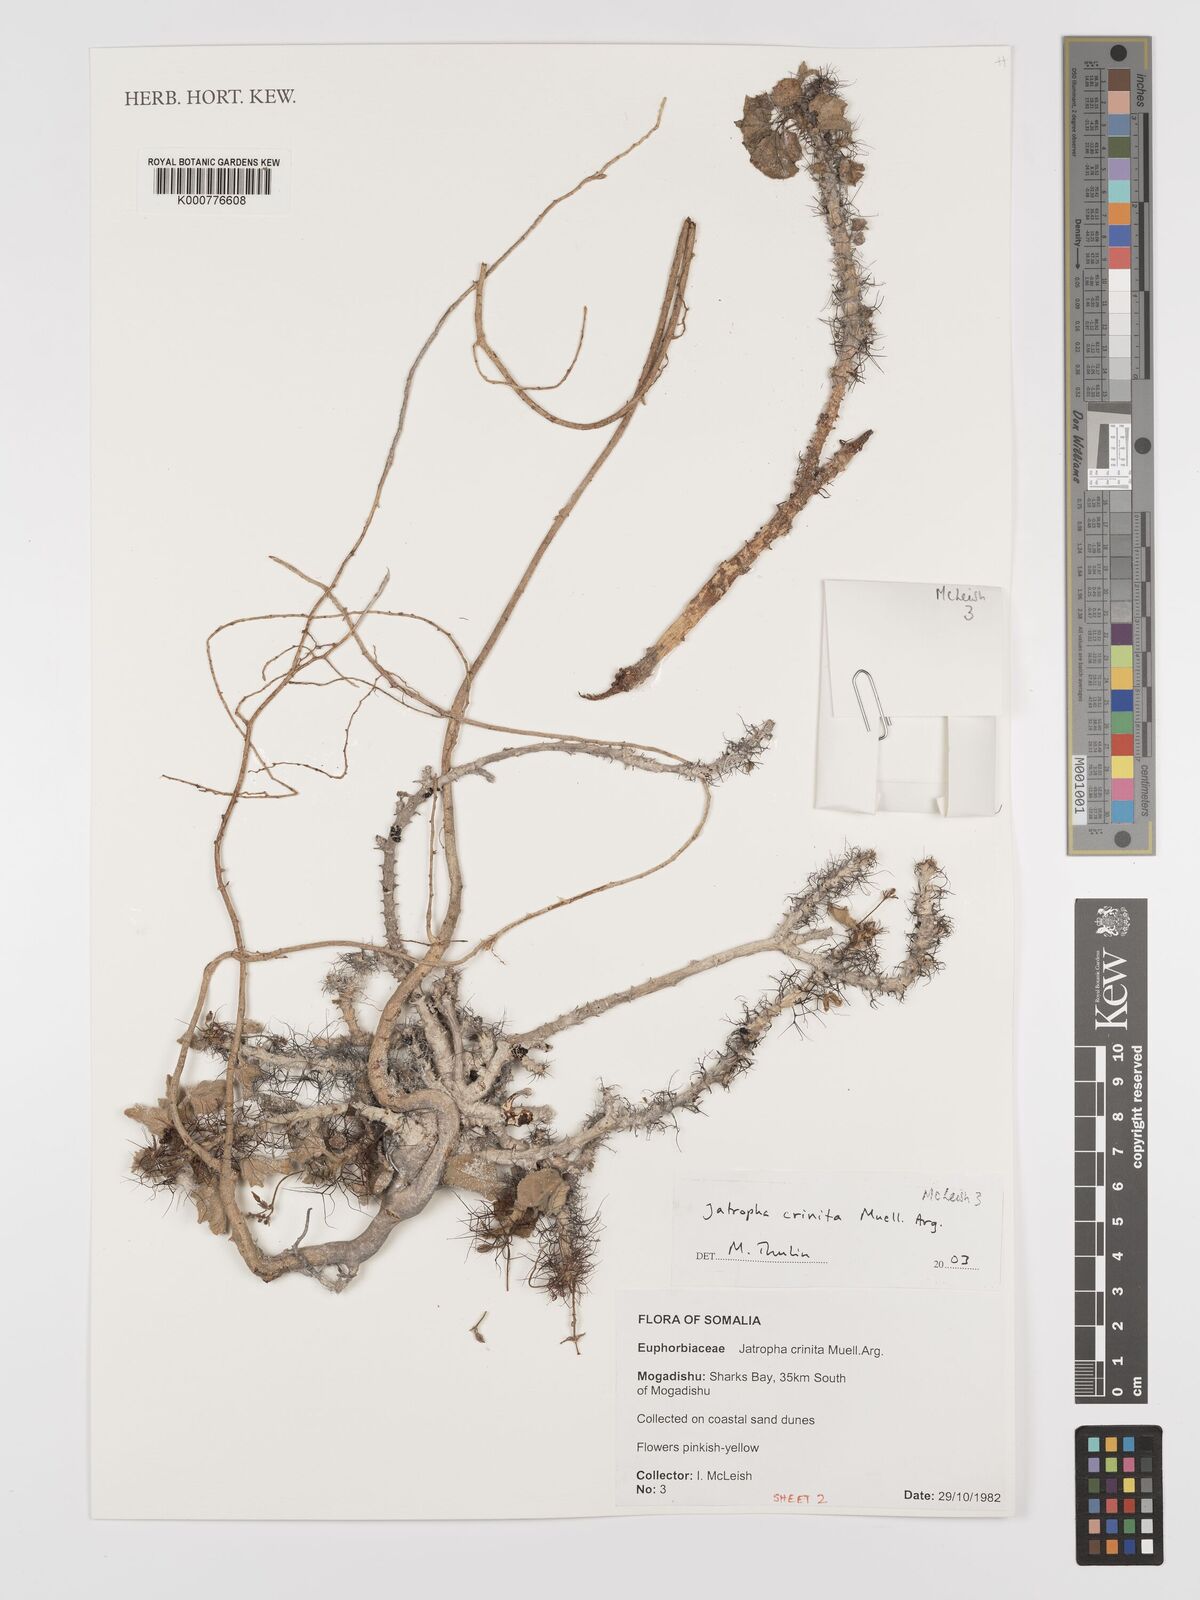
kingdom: Plantae
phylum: Tracheophyta
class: Magnoliopsida
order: Malpighiales
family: Euphorbiaceae
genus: Jatropha
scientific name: Jatropha
